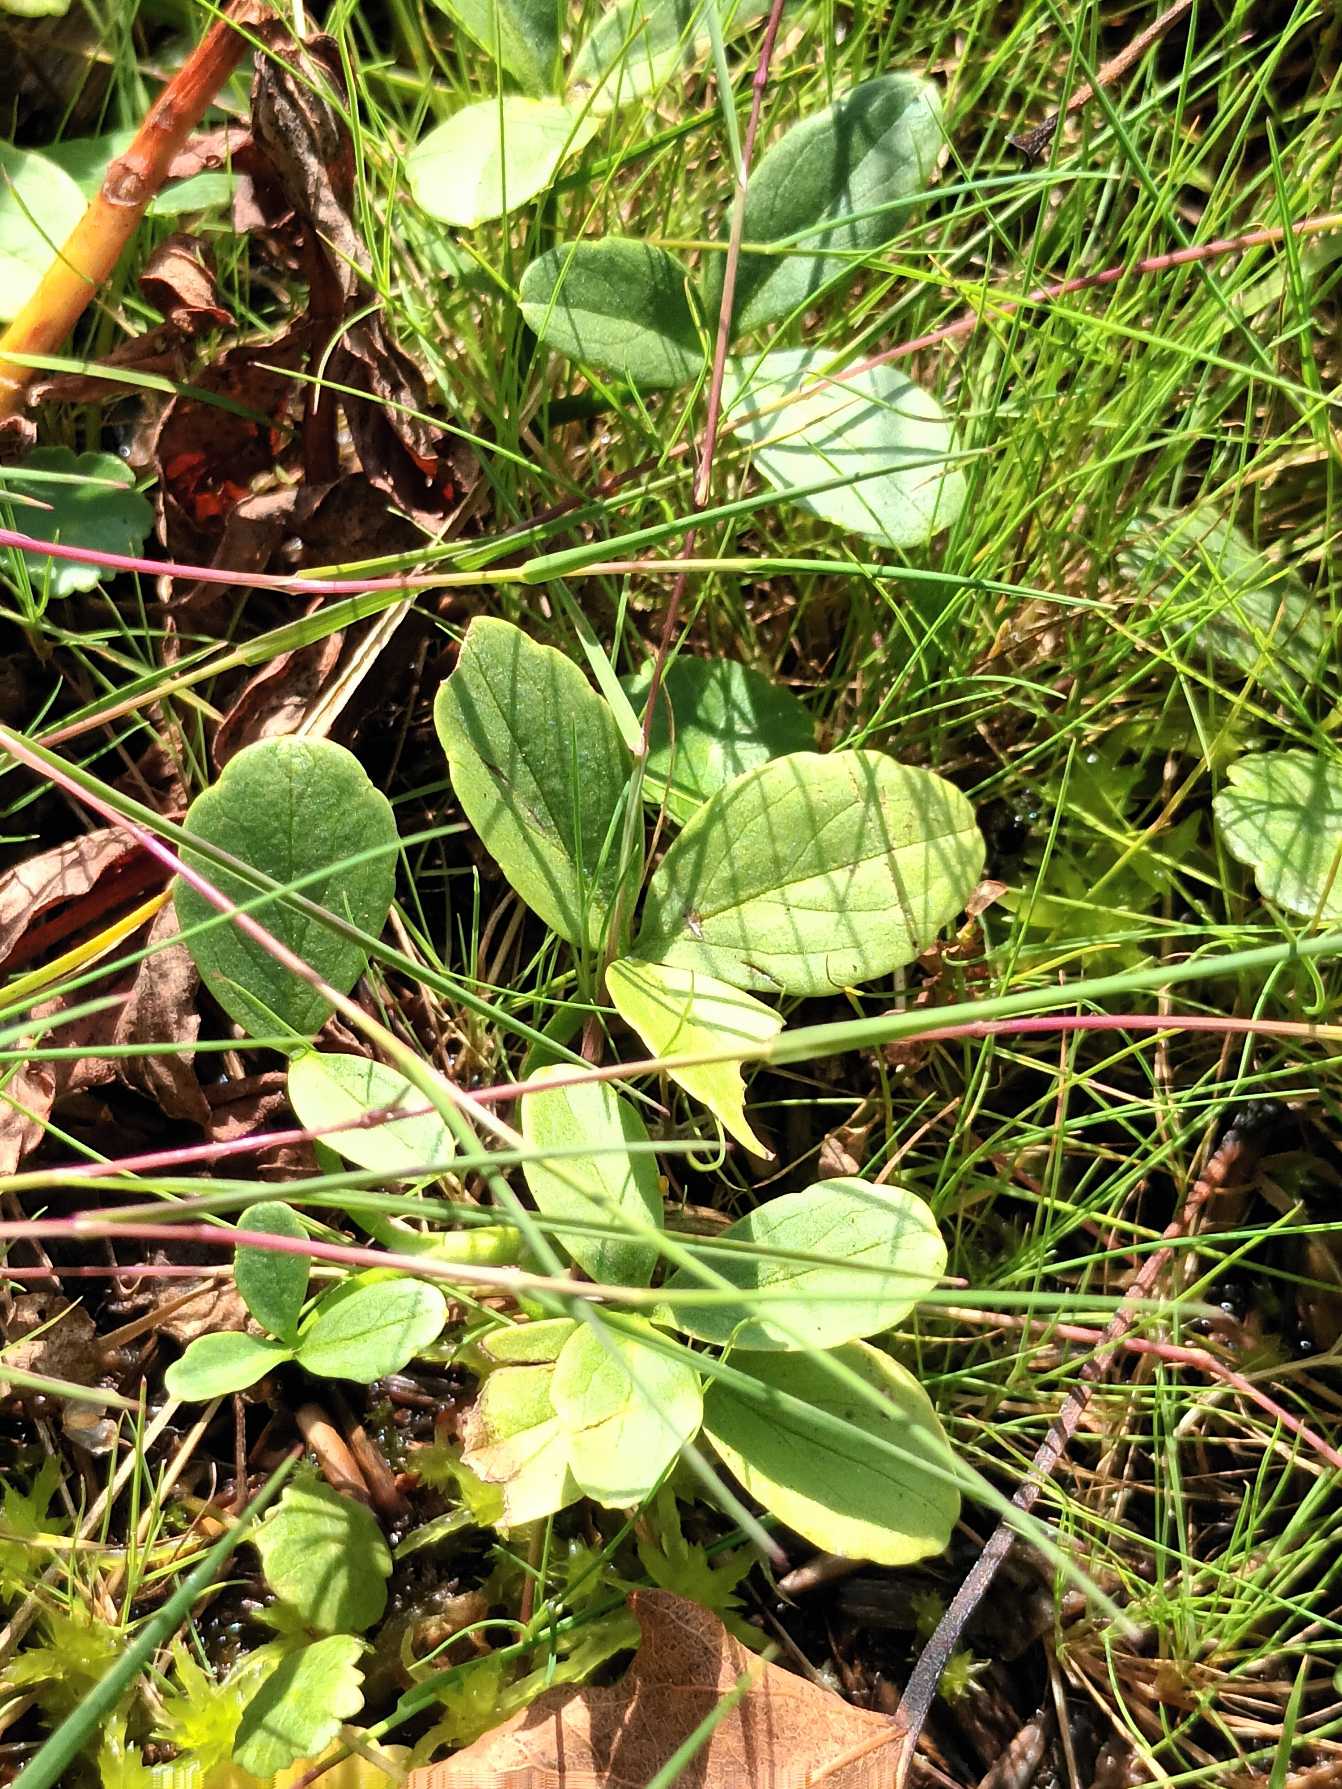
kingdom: Plantae
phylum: Tracheophyta
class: Magnoliopsida
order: Asterales
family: Menyanthaceae
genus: Menyanthes
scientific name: Menyanthes trifoliata
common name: Bukkeblad
